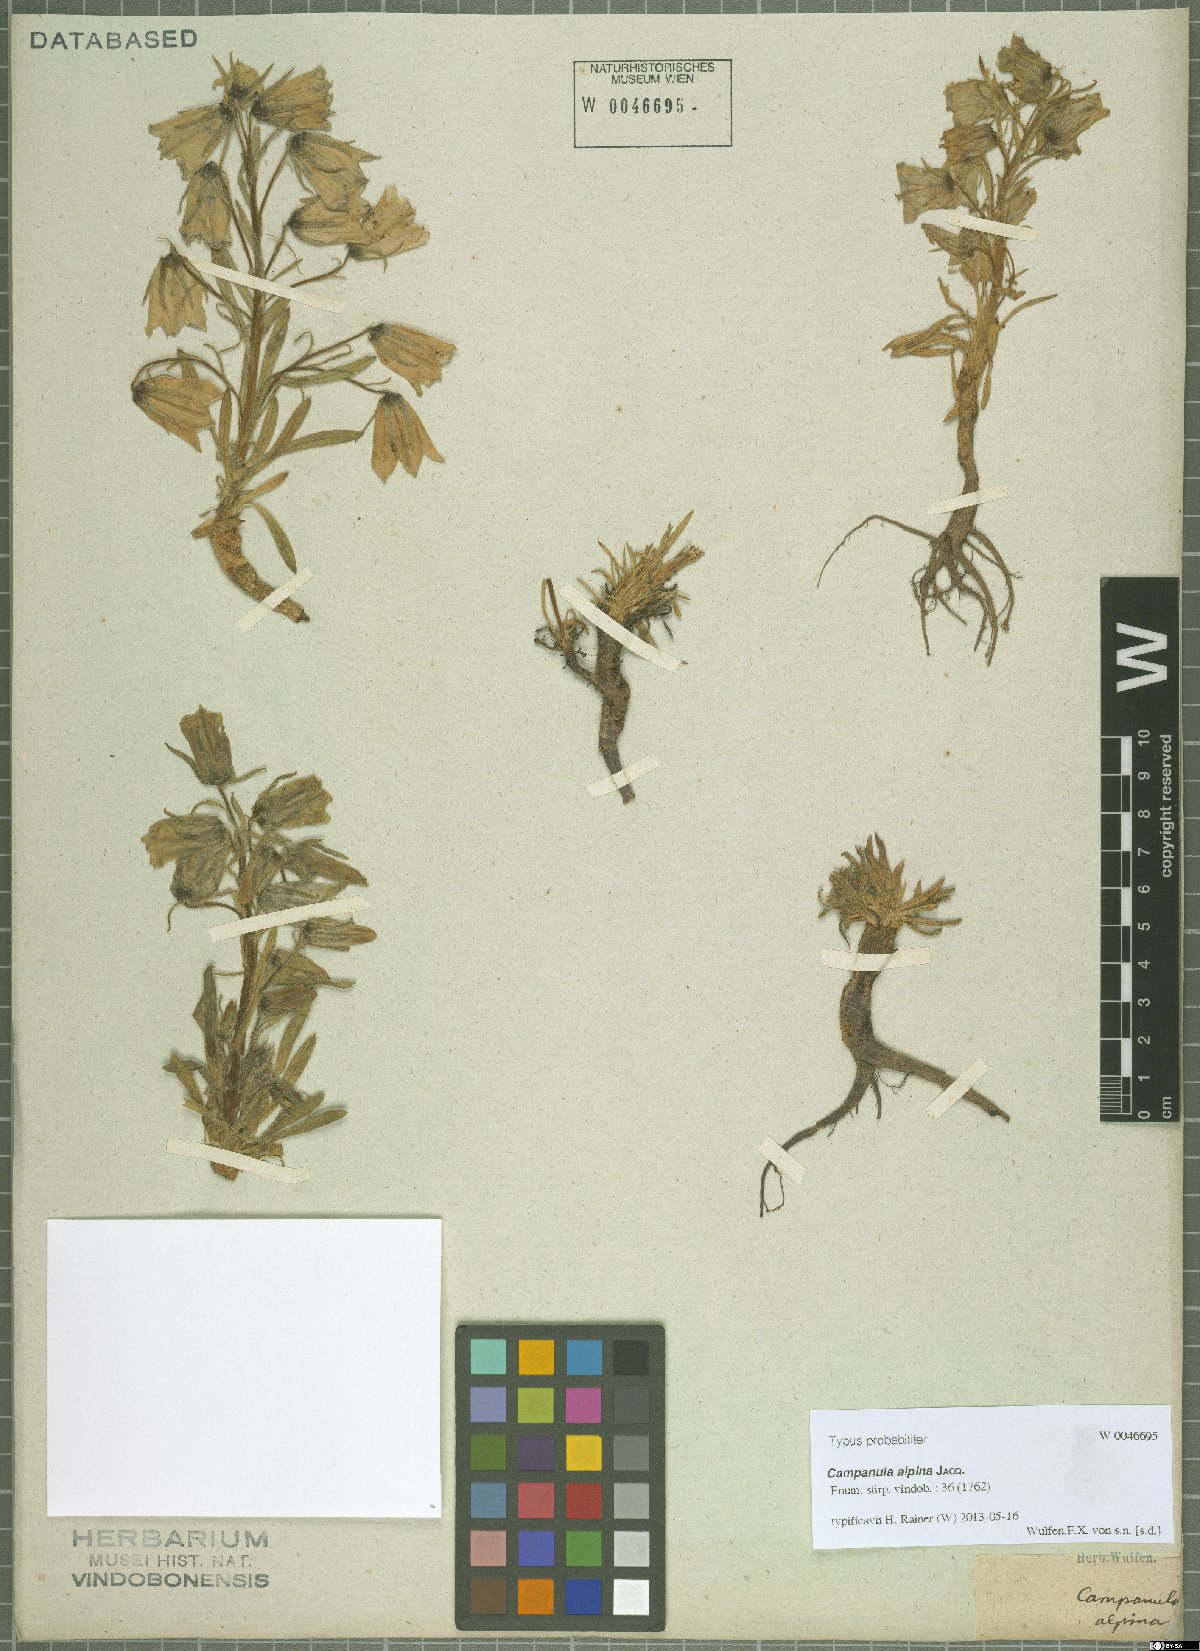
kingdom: Plantae
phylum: Tracheophyta
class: Magnoliopsida
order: Asterales
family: Campanulaceae
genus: Campanula
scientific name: Campanula alpina
